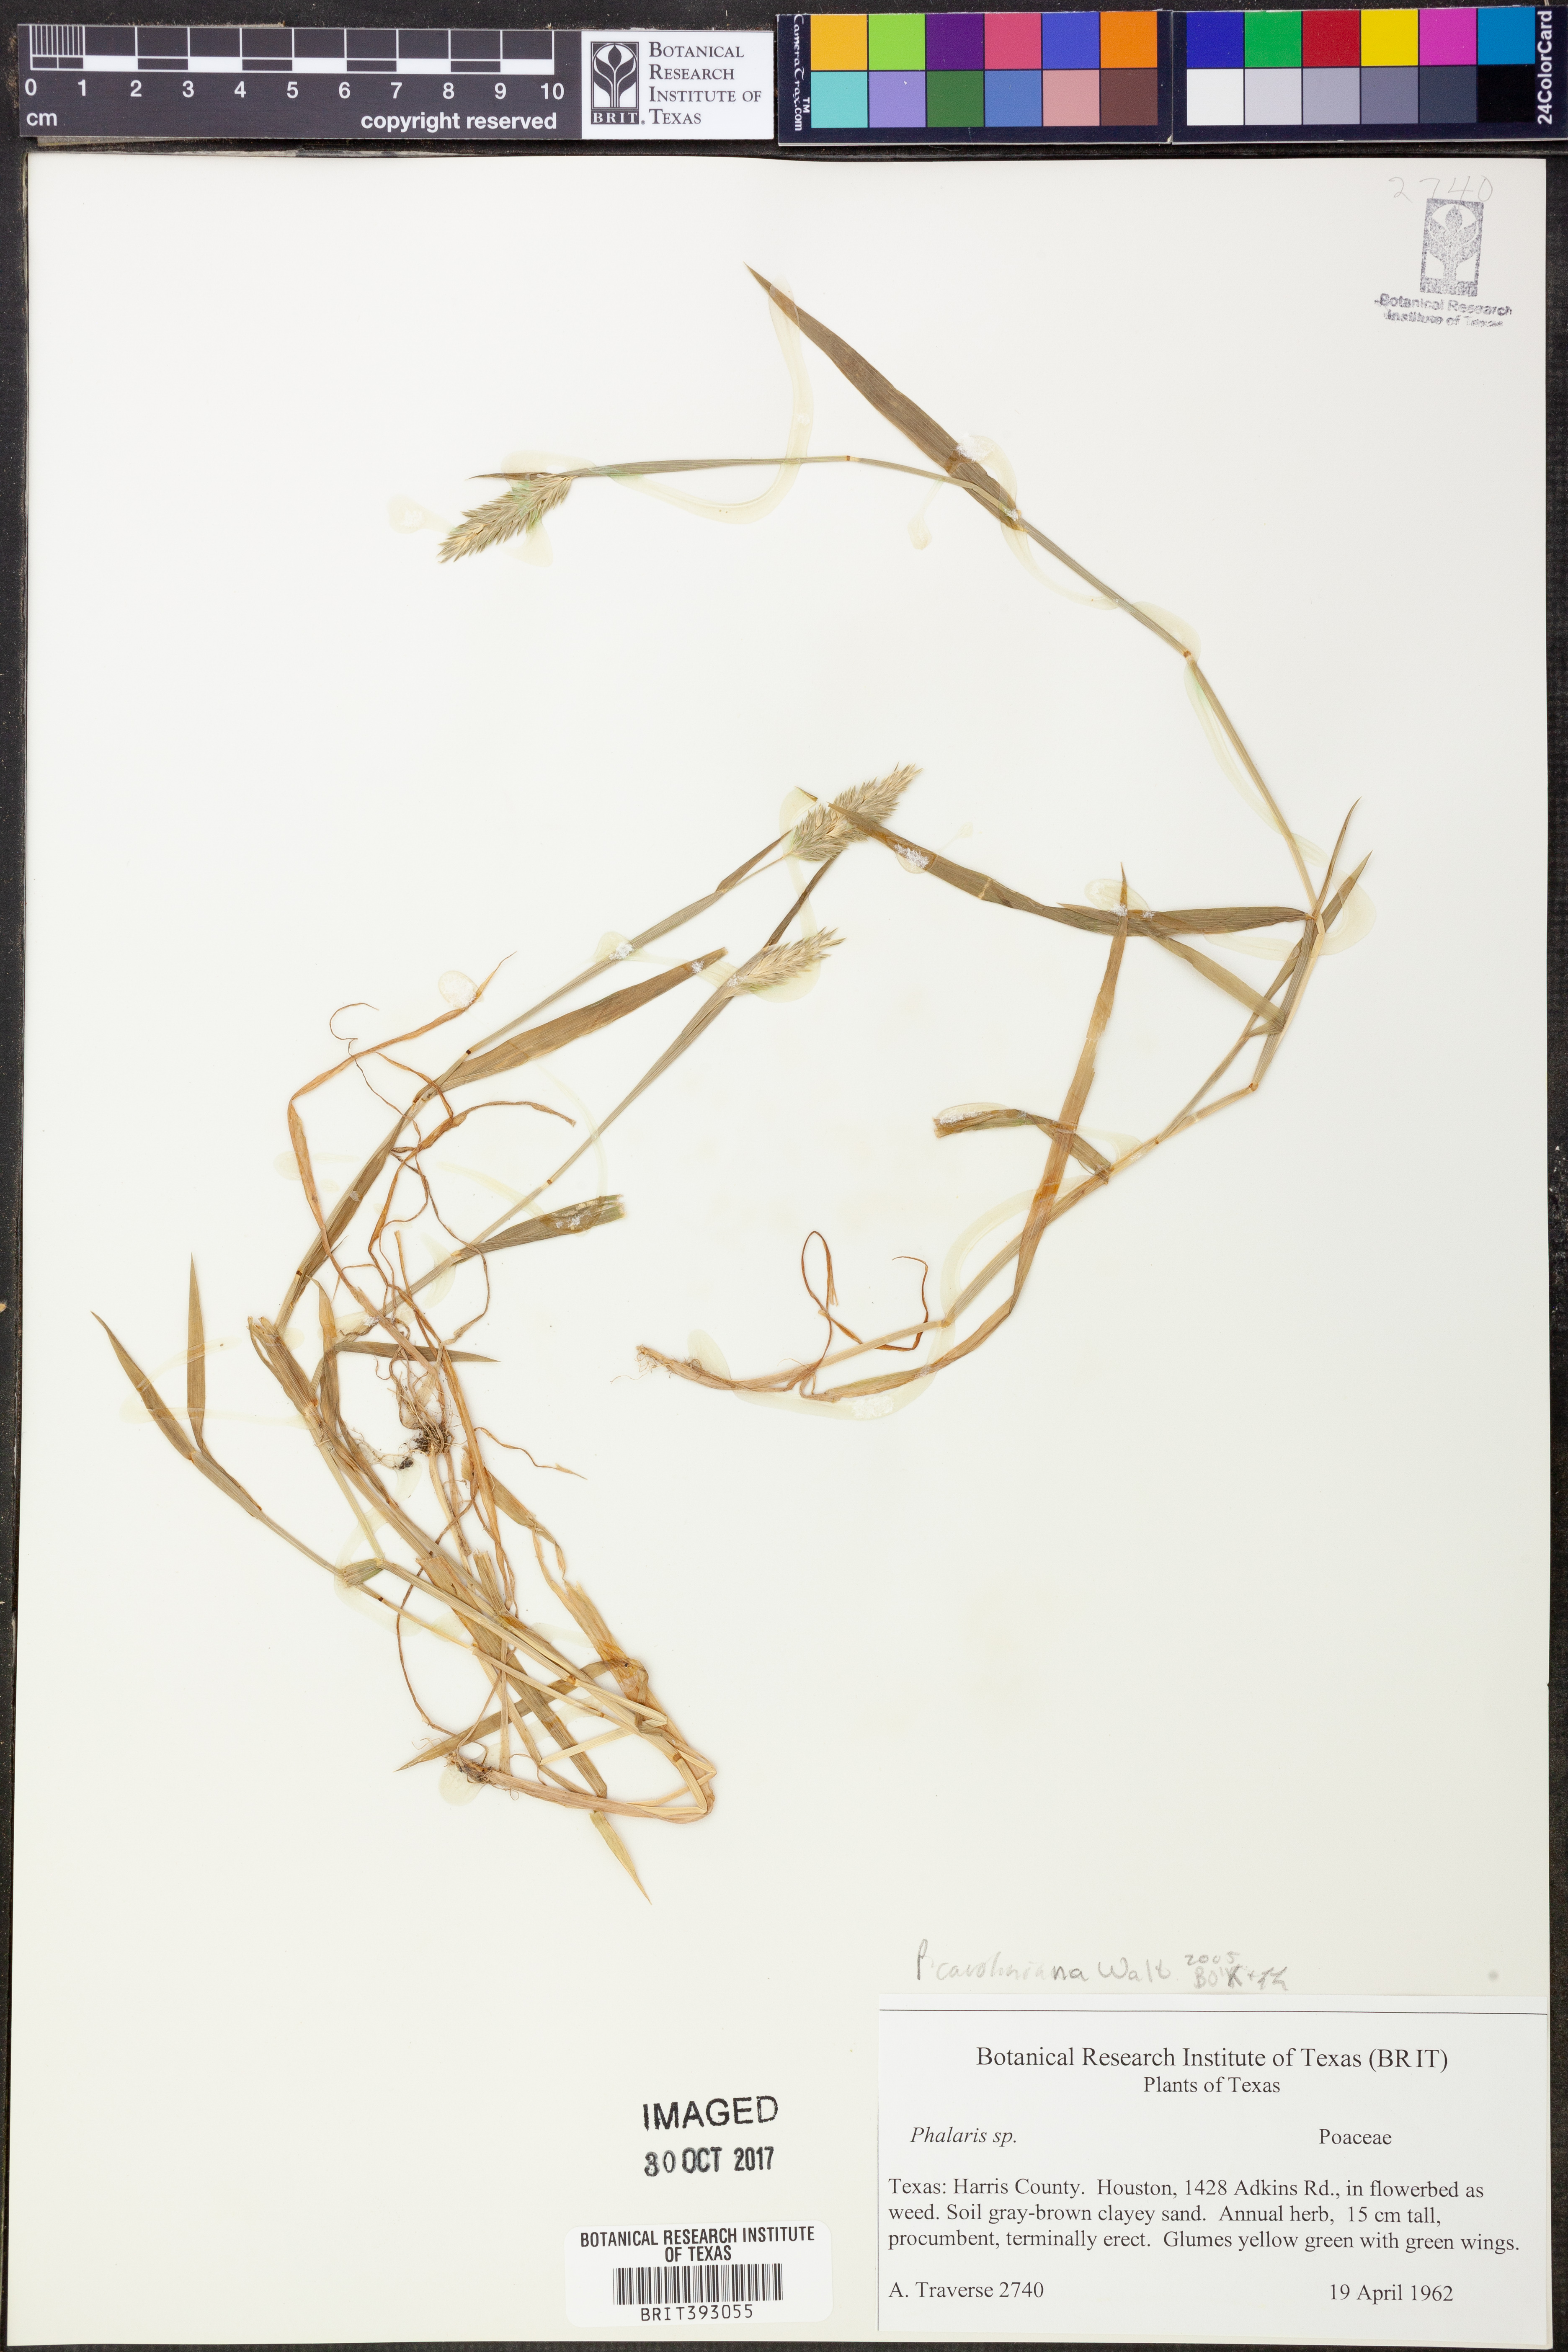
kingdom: Plantae
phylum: Tracheophyta
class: Liliopsida
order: Poales
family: Poaceae
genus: Phalaris
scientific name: Phalaris caroliniana
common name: May grass
